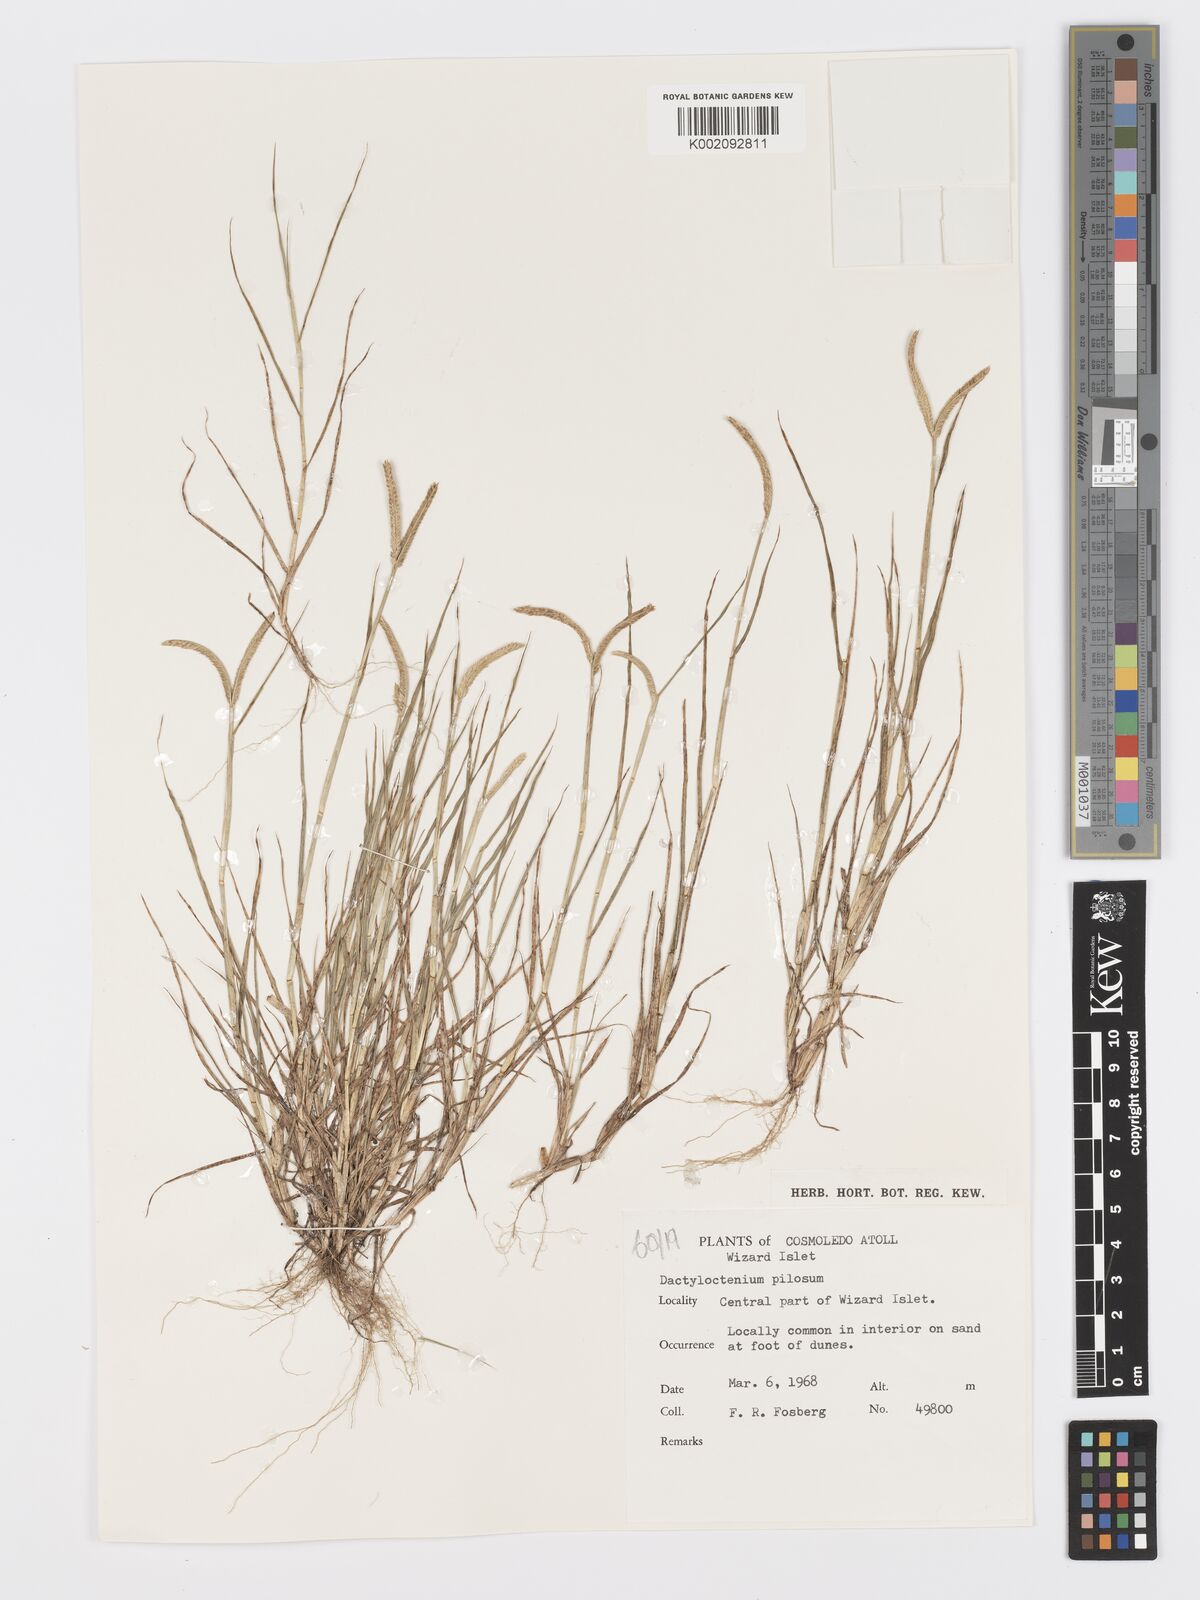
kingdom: Plantae
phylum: Tracheophyta
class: Liliopsida
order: Poales
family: Poaceae
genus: Dactyloctenium
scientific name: Dactyloctenium pilosum
